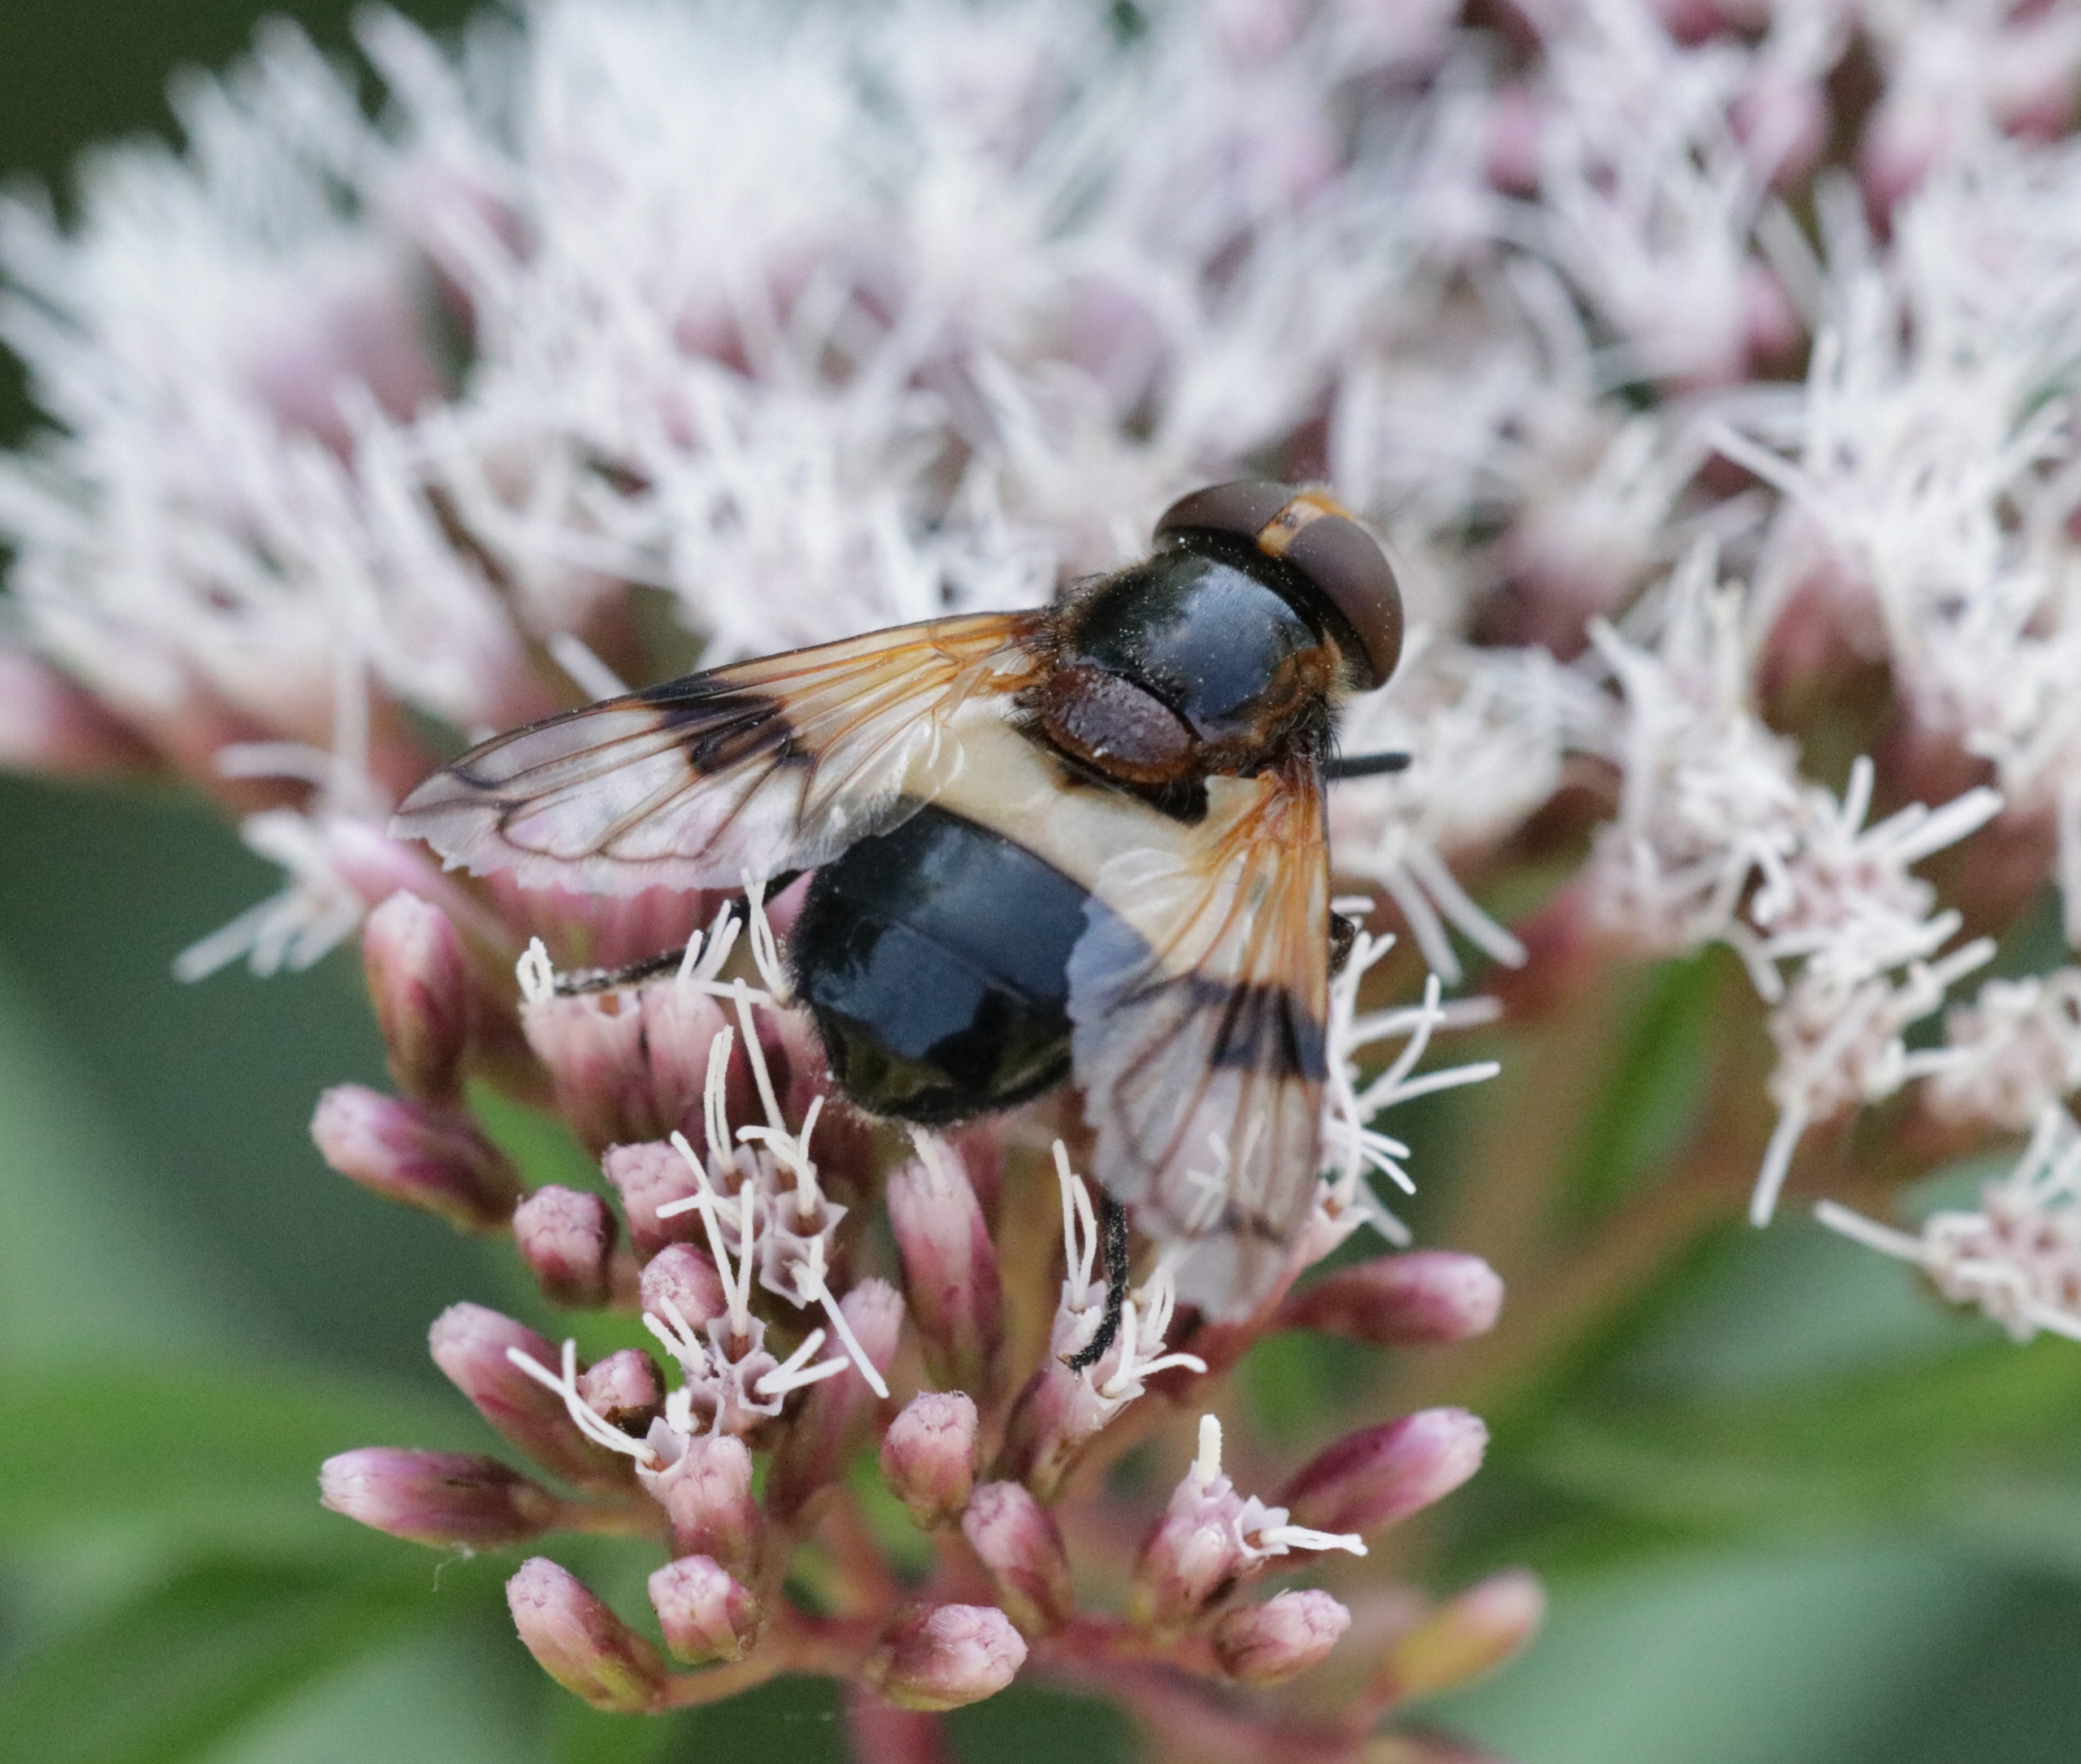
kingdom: Animalia
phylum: Arthropoda
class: Insecta
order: Diptera
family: Syrphidae
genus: Volucella
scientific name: Volucella pellucens
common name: Hvidbåndet humlesvirreflue
